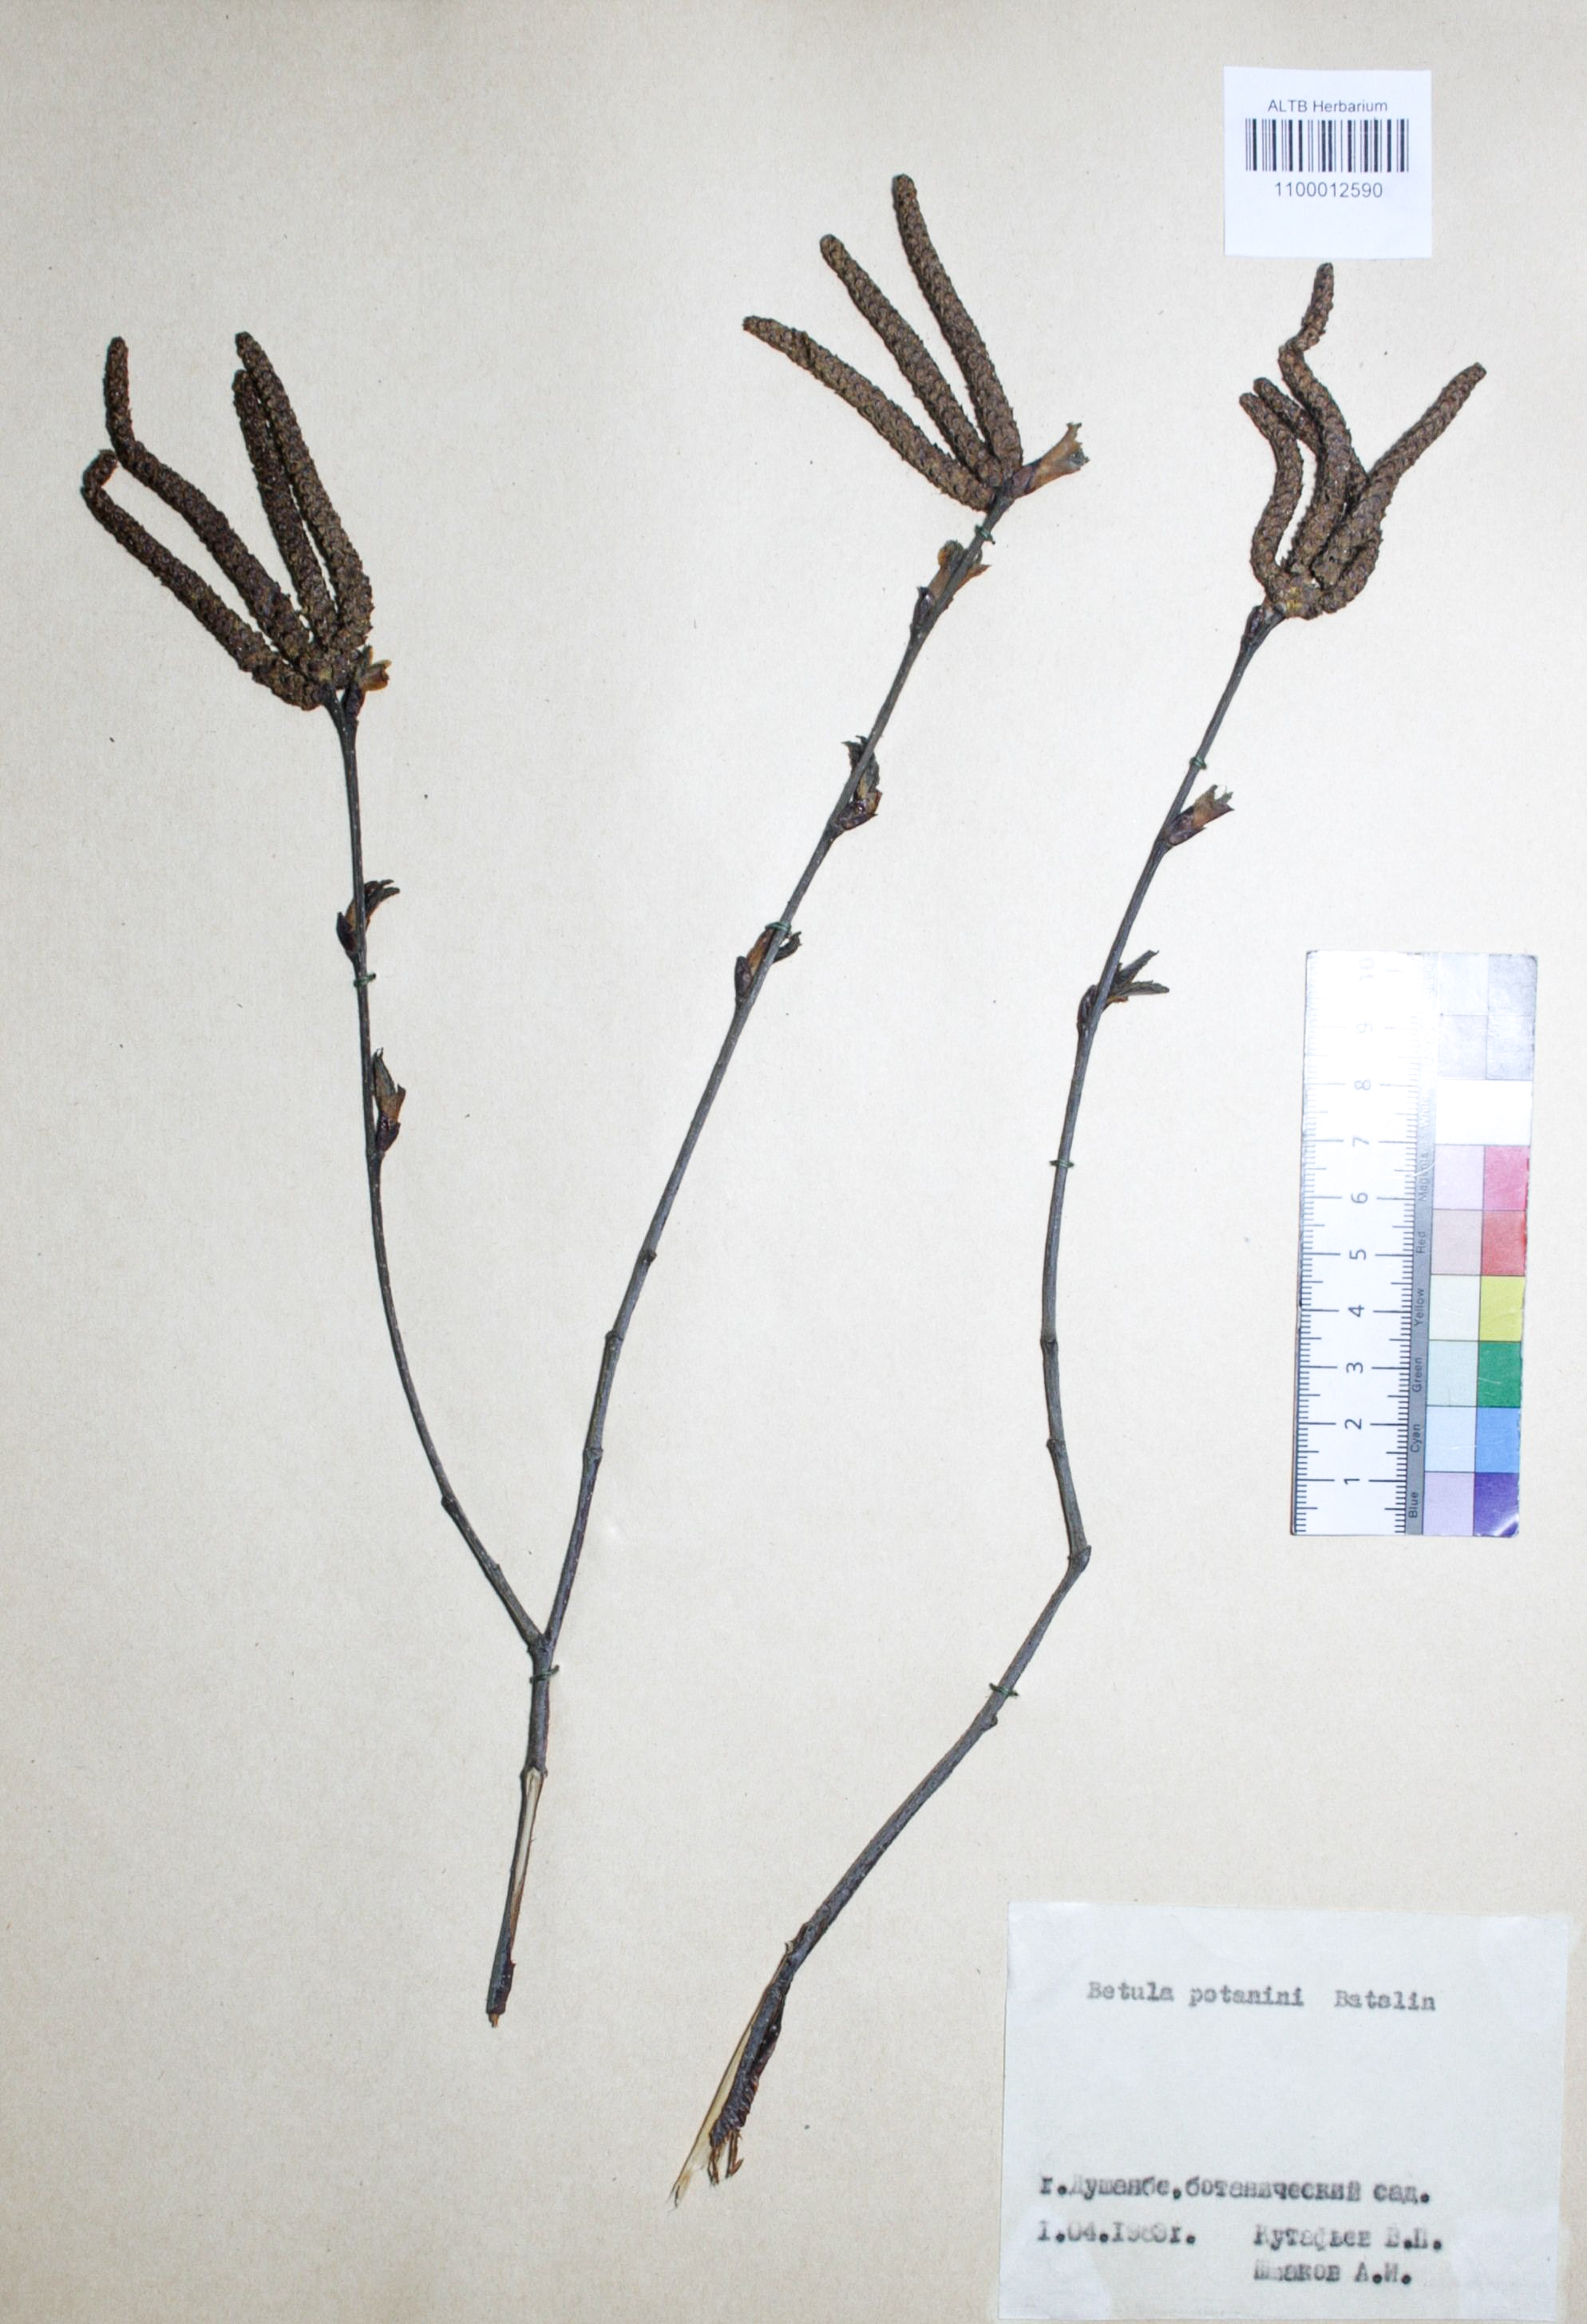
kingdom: Plantae
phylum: Tracheophyta
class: Magnoliopsida
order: Fagales
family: Betulaceae
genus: Betula
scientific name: Betula potaninii
